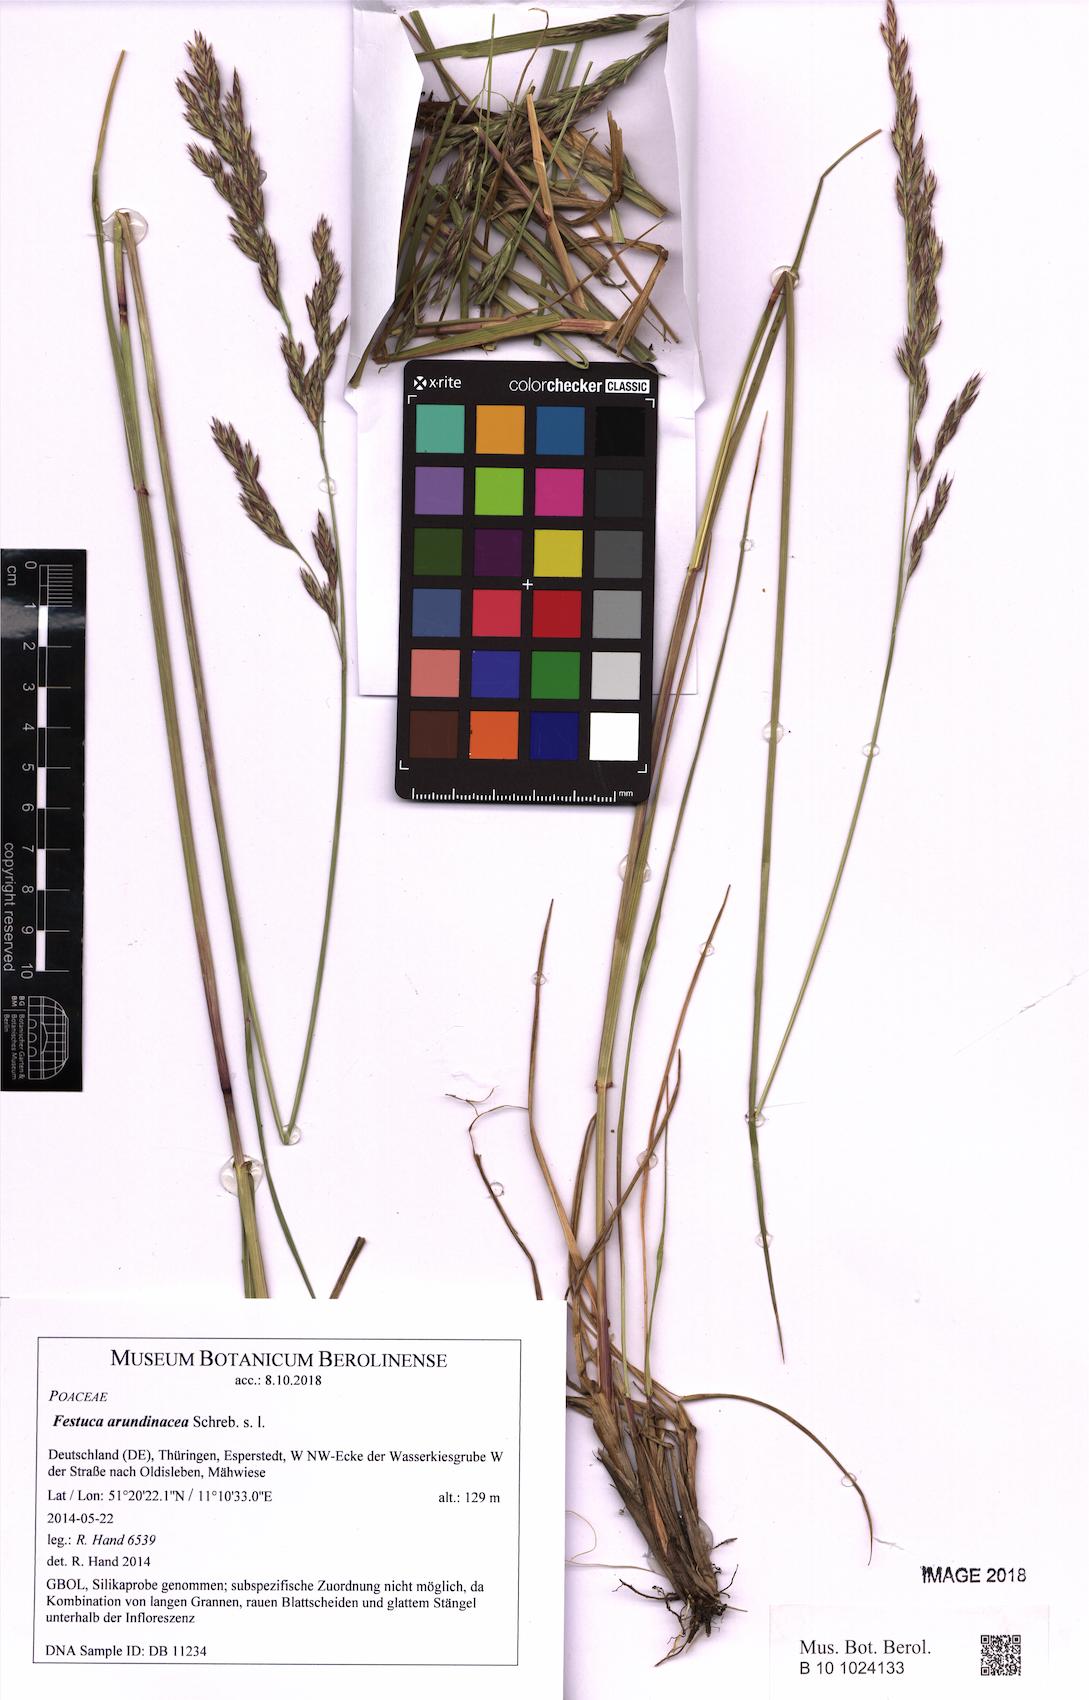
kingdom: Plantae
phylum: Tracheophyta
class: Liliopsida
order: Poales
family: Poaceae
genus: Lolium
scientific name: Lolium arundinaceum
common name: Reed fescue
